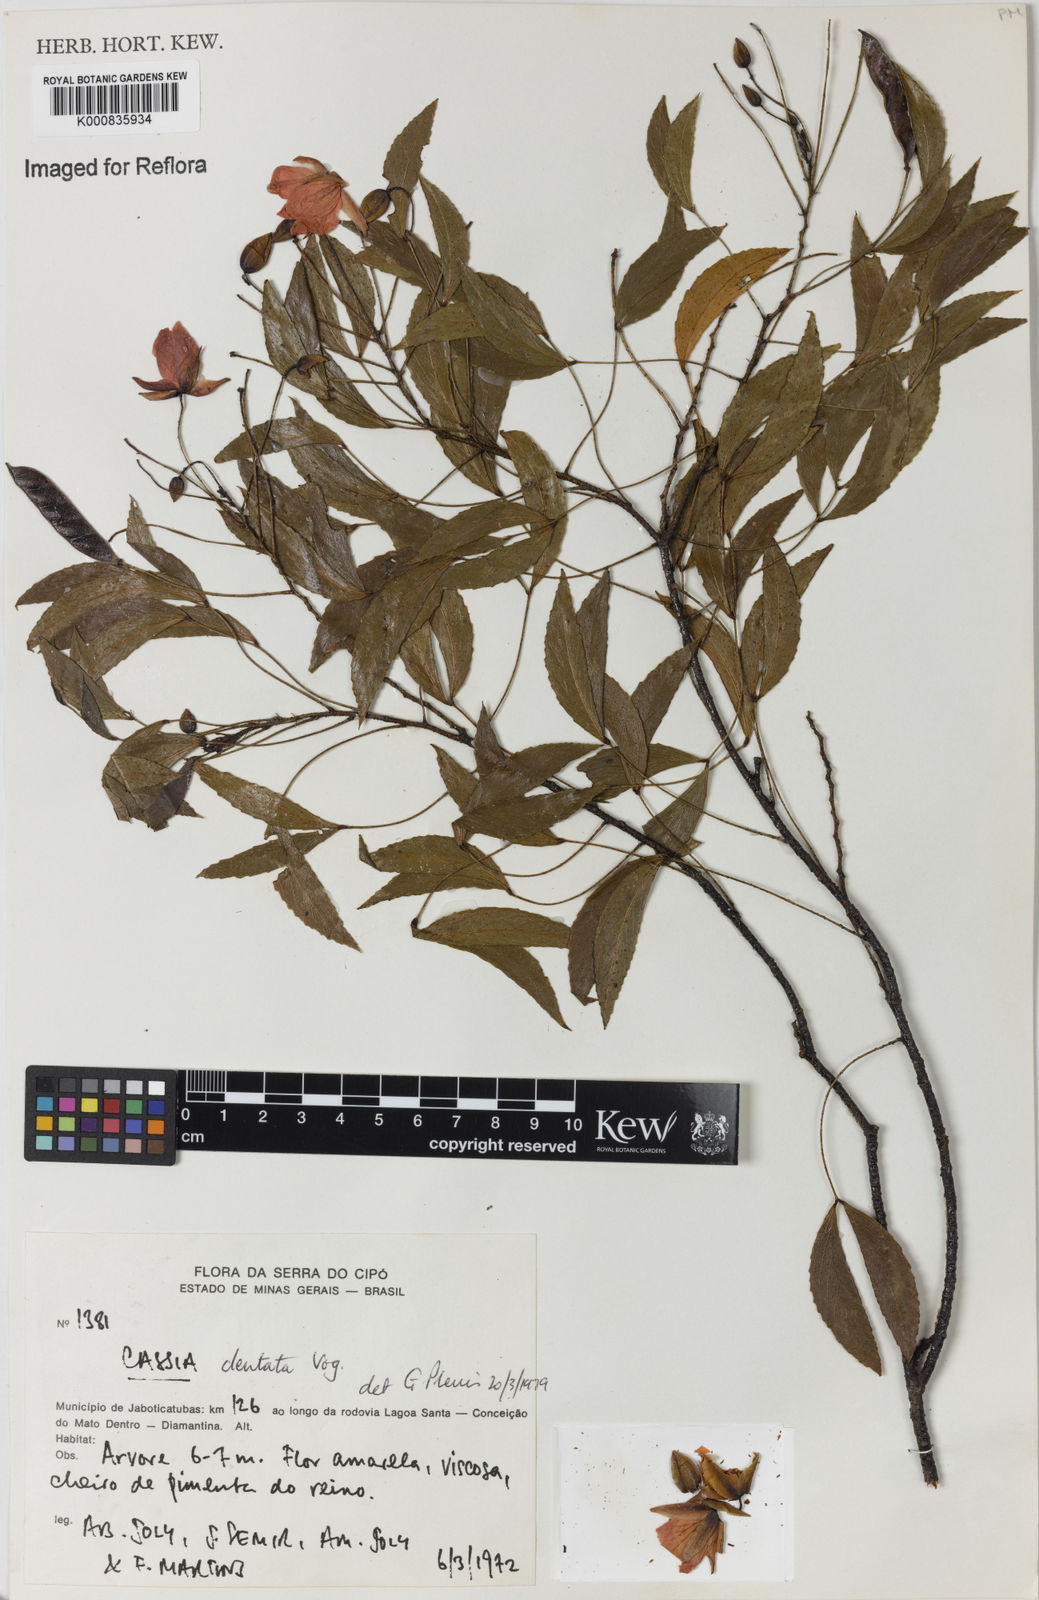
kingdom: Plantae
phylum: Tracheophyta
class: Magnoliopsida
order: Fabales
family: Fabaceae
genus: Chamaecrista
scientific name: Chamaecrista dentata
